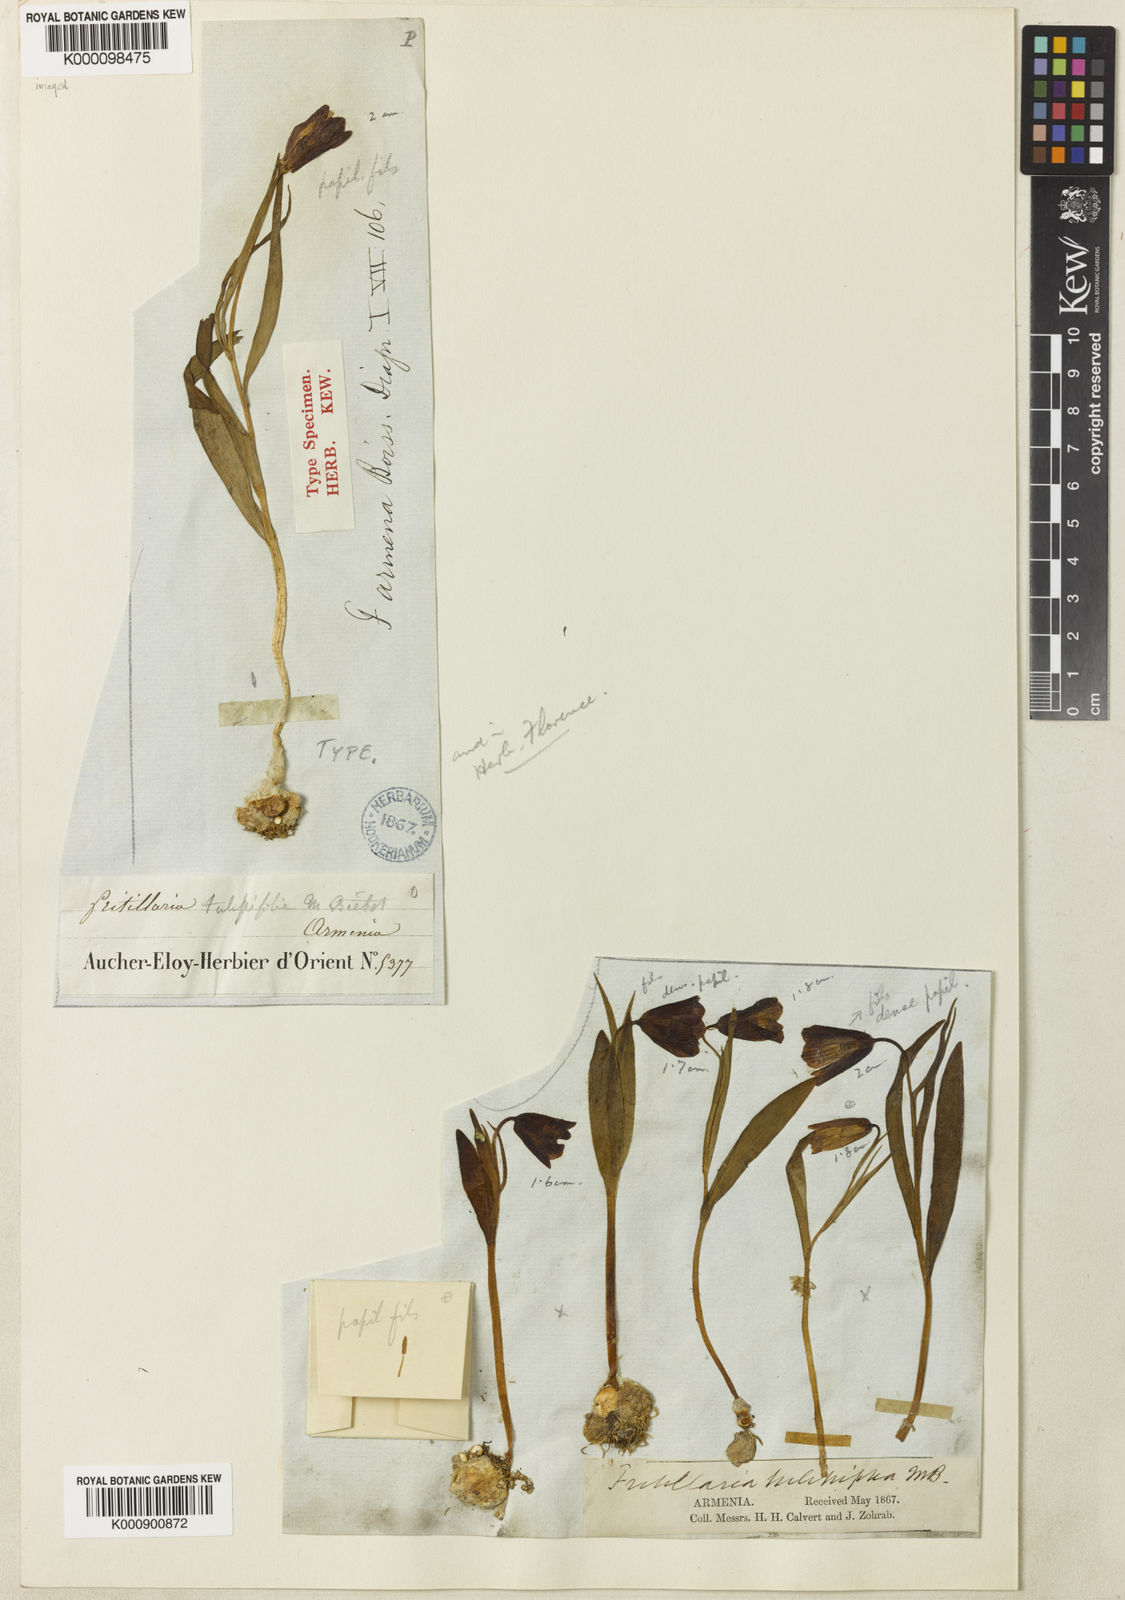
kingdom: Plantae
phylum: Tracheophyta
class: Liliopsida
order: Liliales
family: Liliaceae
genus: Fritillaria
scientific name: Fritillaria armena
